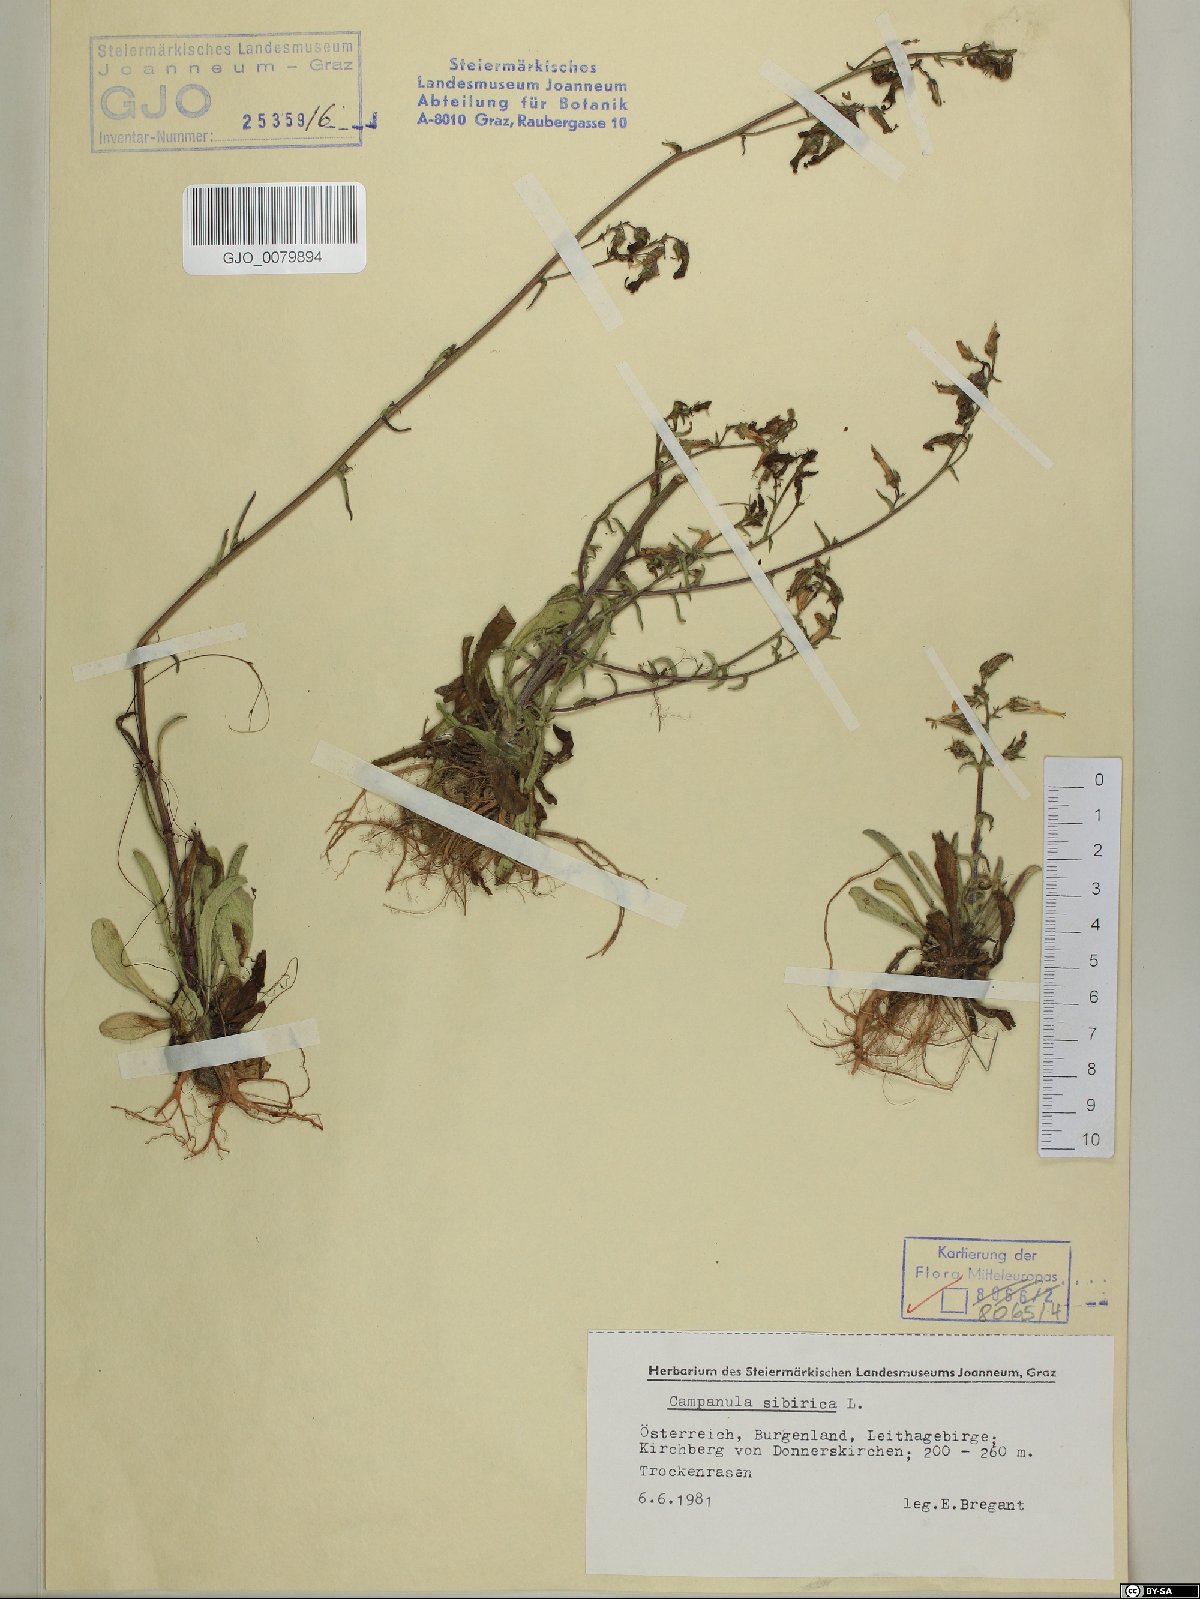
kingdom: Plantae
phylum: Tracheophyta
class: Magnoliopsida
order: Asterales
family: Campanulaceae
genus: Campanula
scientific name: Campanula sibirica
